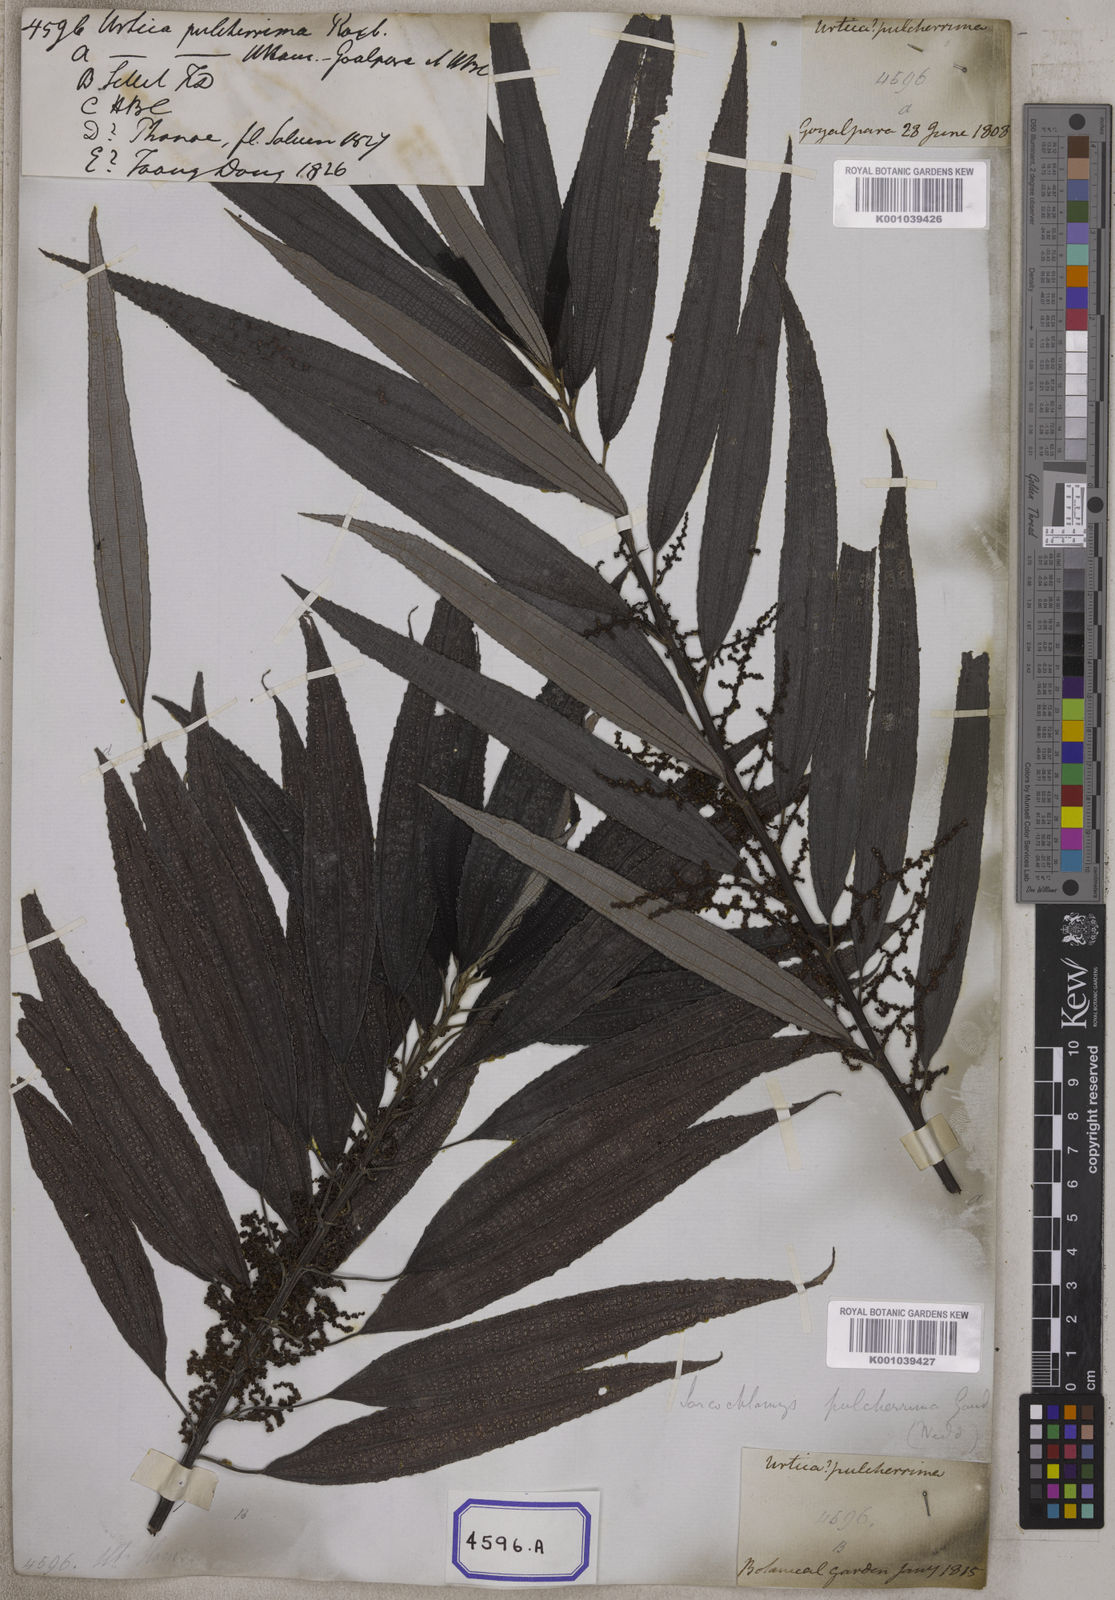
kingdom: Plantae
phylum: Tracheophyta
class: Magnoliopsida
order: Rosales
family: Urticaceae
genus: Boehmeria
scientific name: Boehmeria virgata
